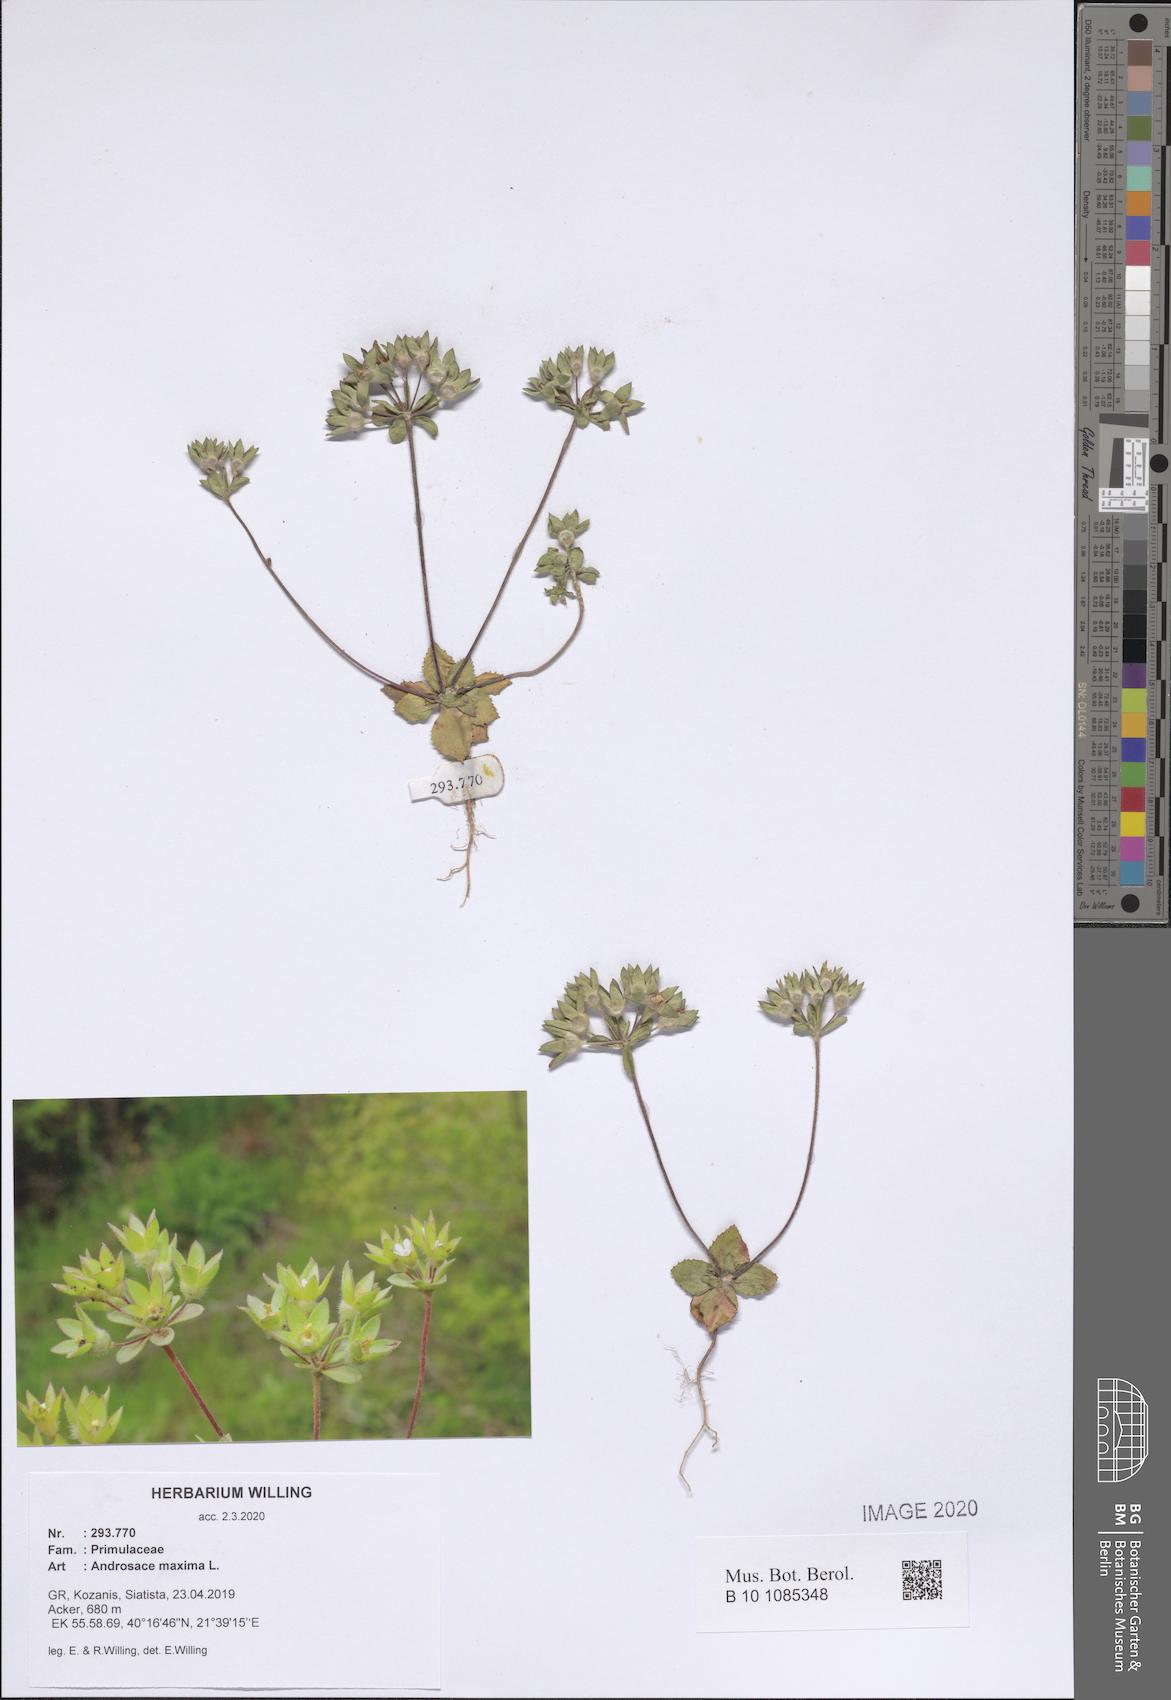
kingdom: Plantae
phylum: Tracheophyta
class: Magnoliopsida
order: Ericales
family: Primulaceae
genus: Androsace
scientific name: Androsace maxima
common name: Annual androsace
